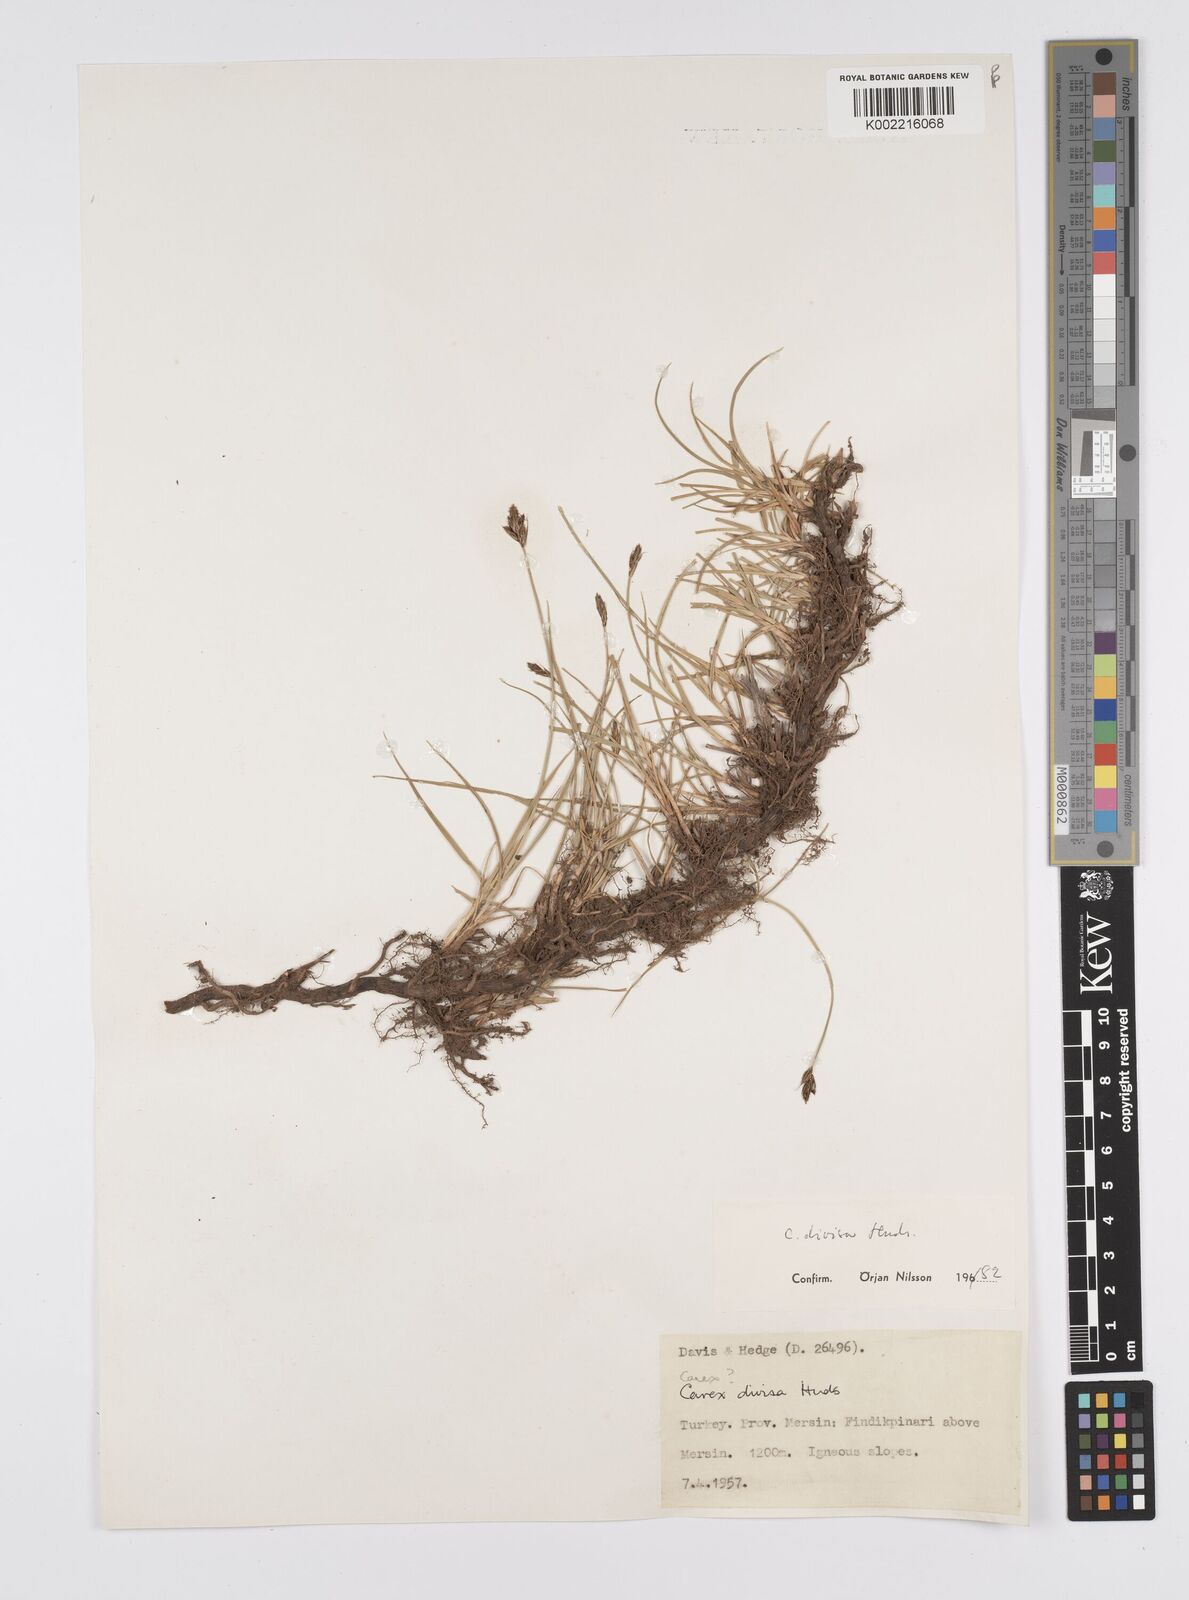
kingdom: Plantae
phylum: Tracheophyta
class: Liliopsida
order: Poales
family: Cyperaceae
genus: Carex
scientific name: Carex divisa
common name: Divided sedge
